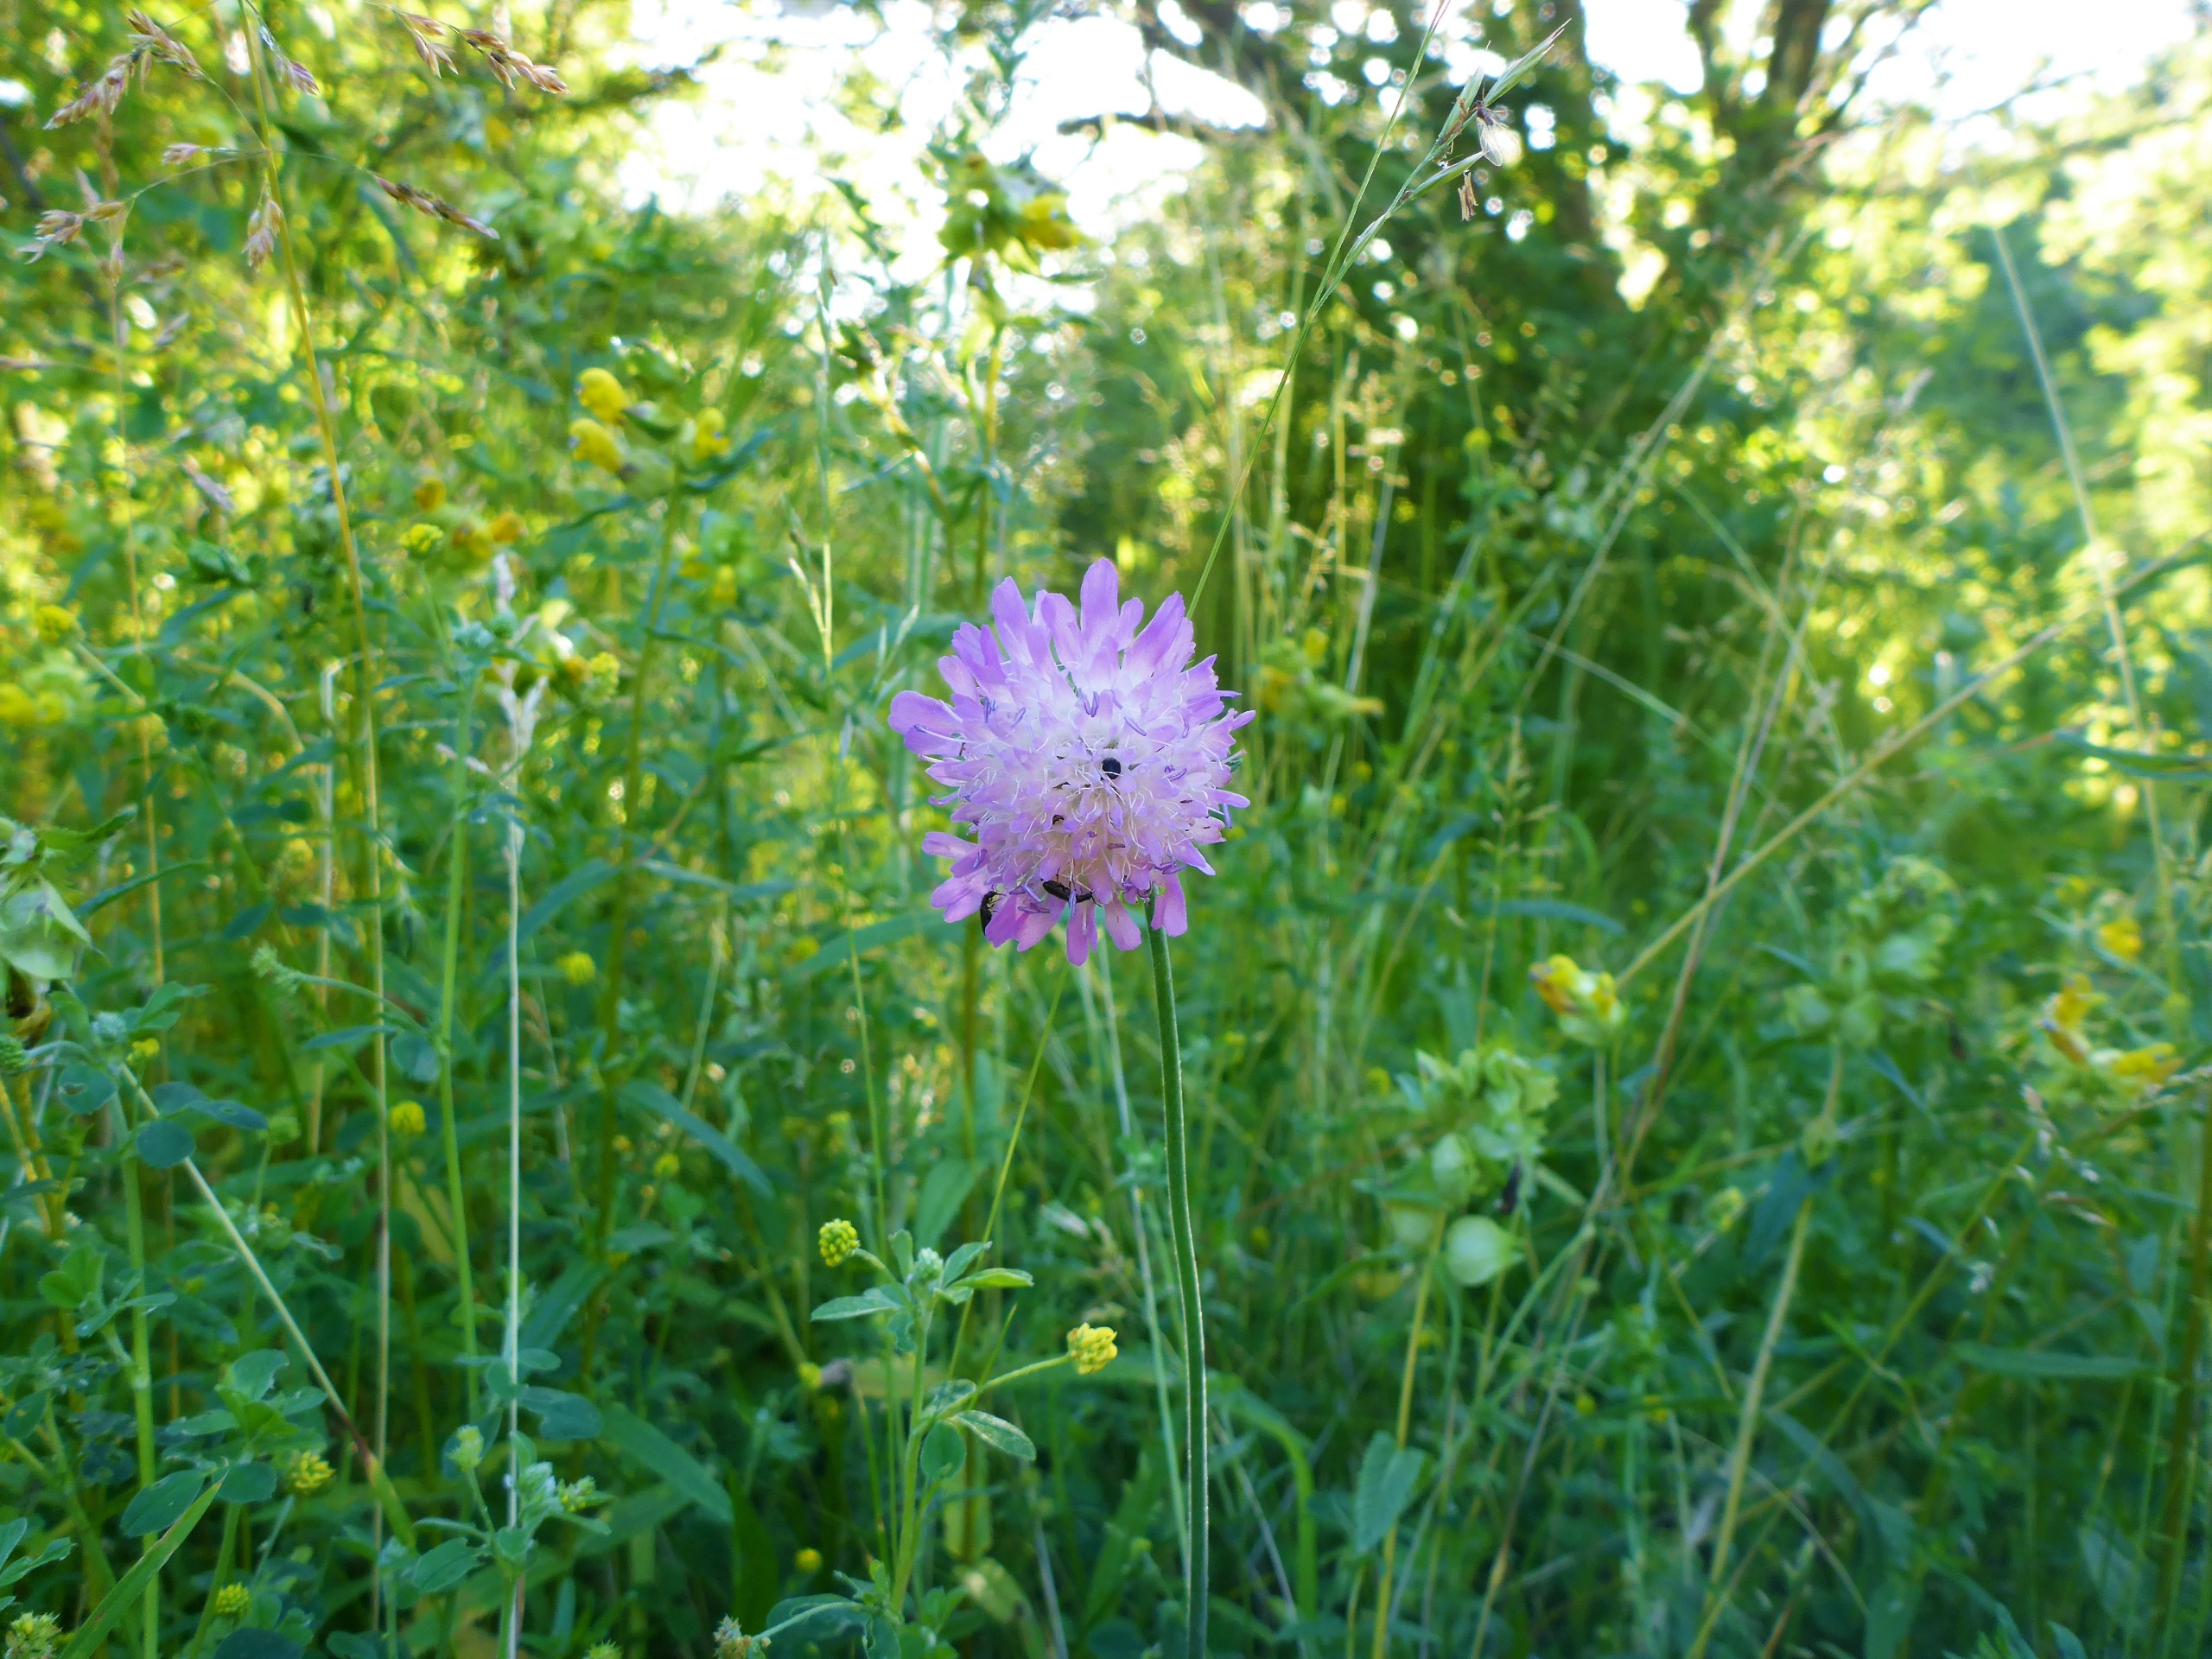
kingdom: Plantae
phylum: Tracheophyta
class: Magnoliopsida
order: Dipsacales
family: Caprifoliaceae
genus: Knautia
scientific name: Knautia arvensis
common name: Blåhat
